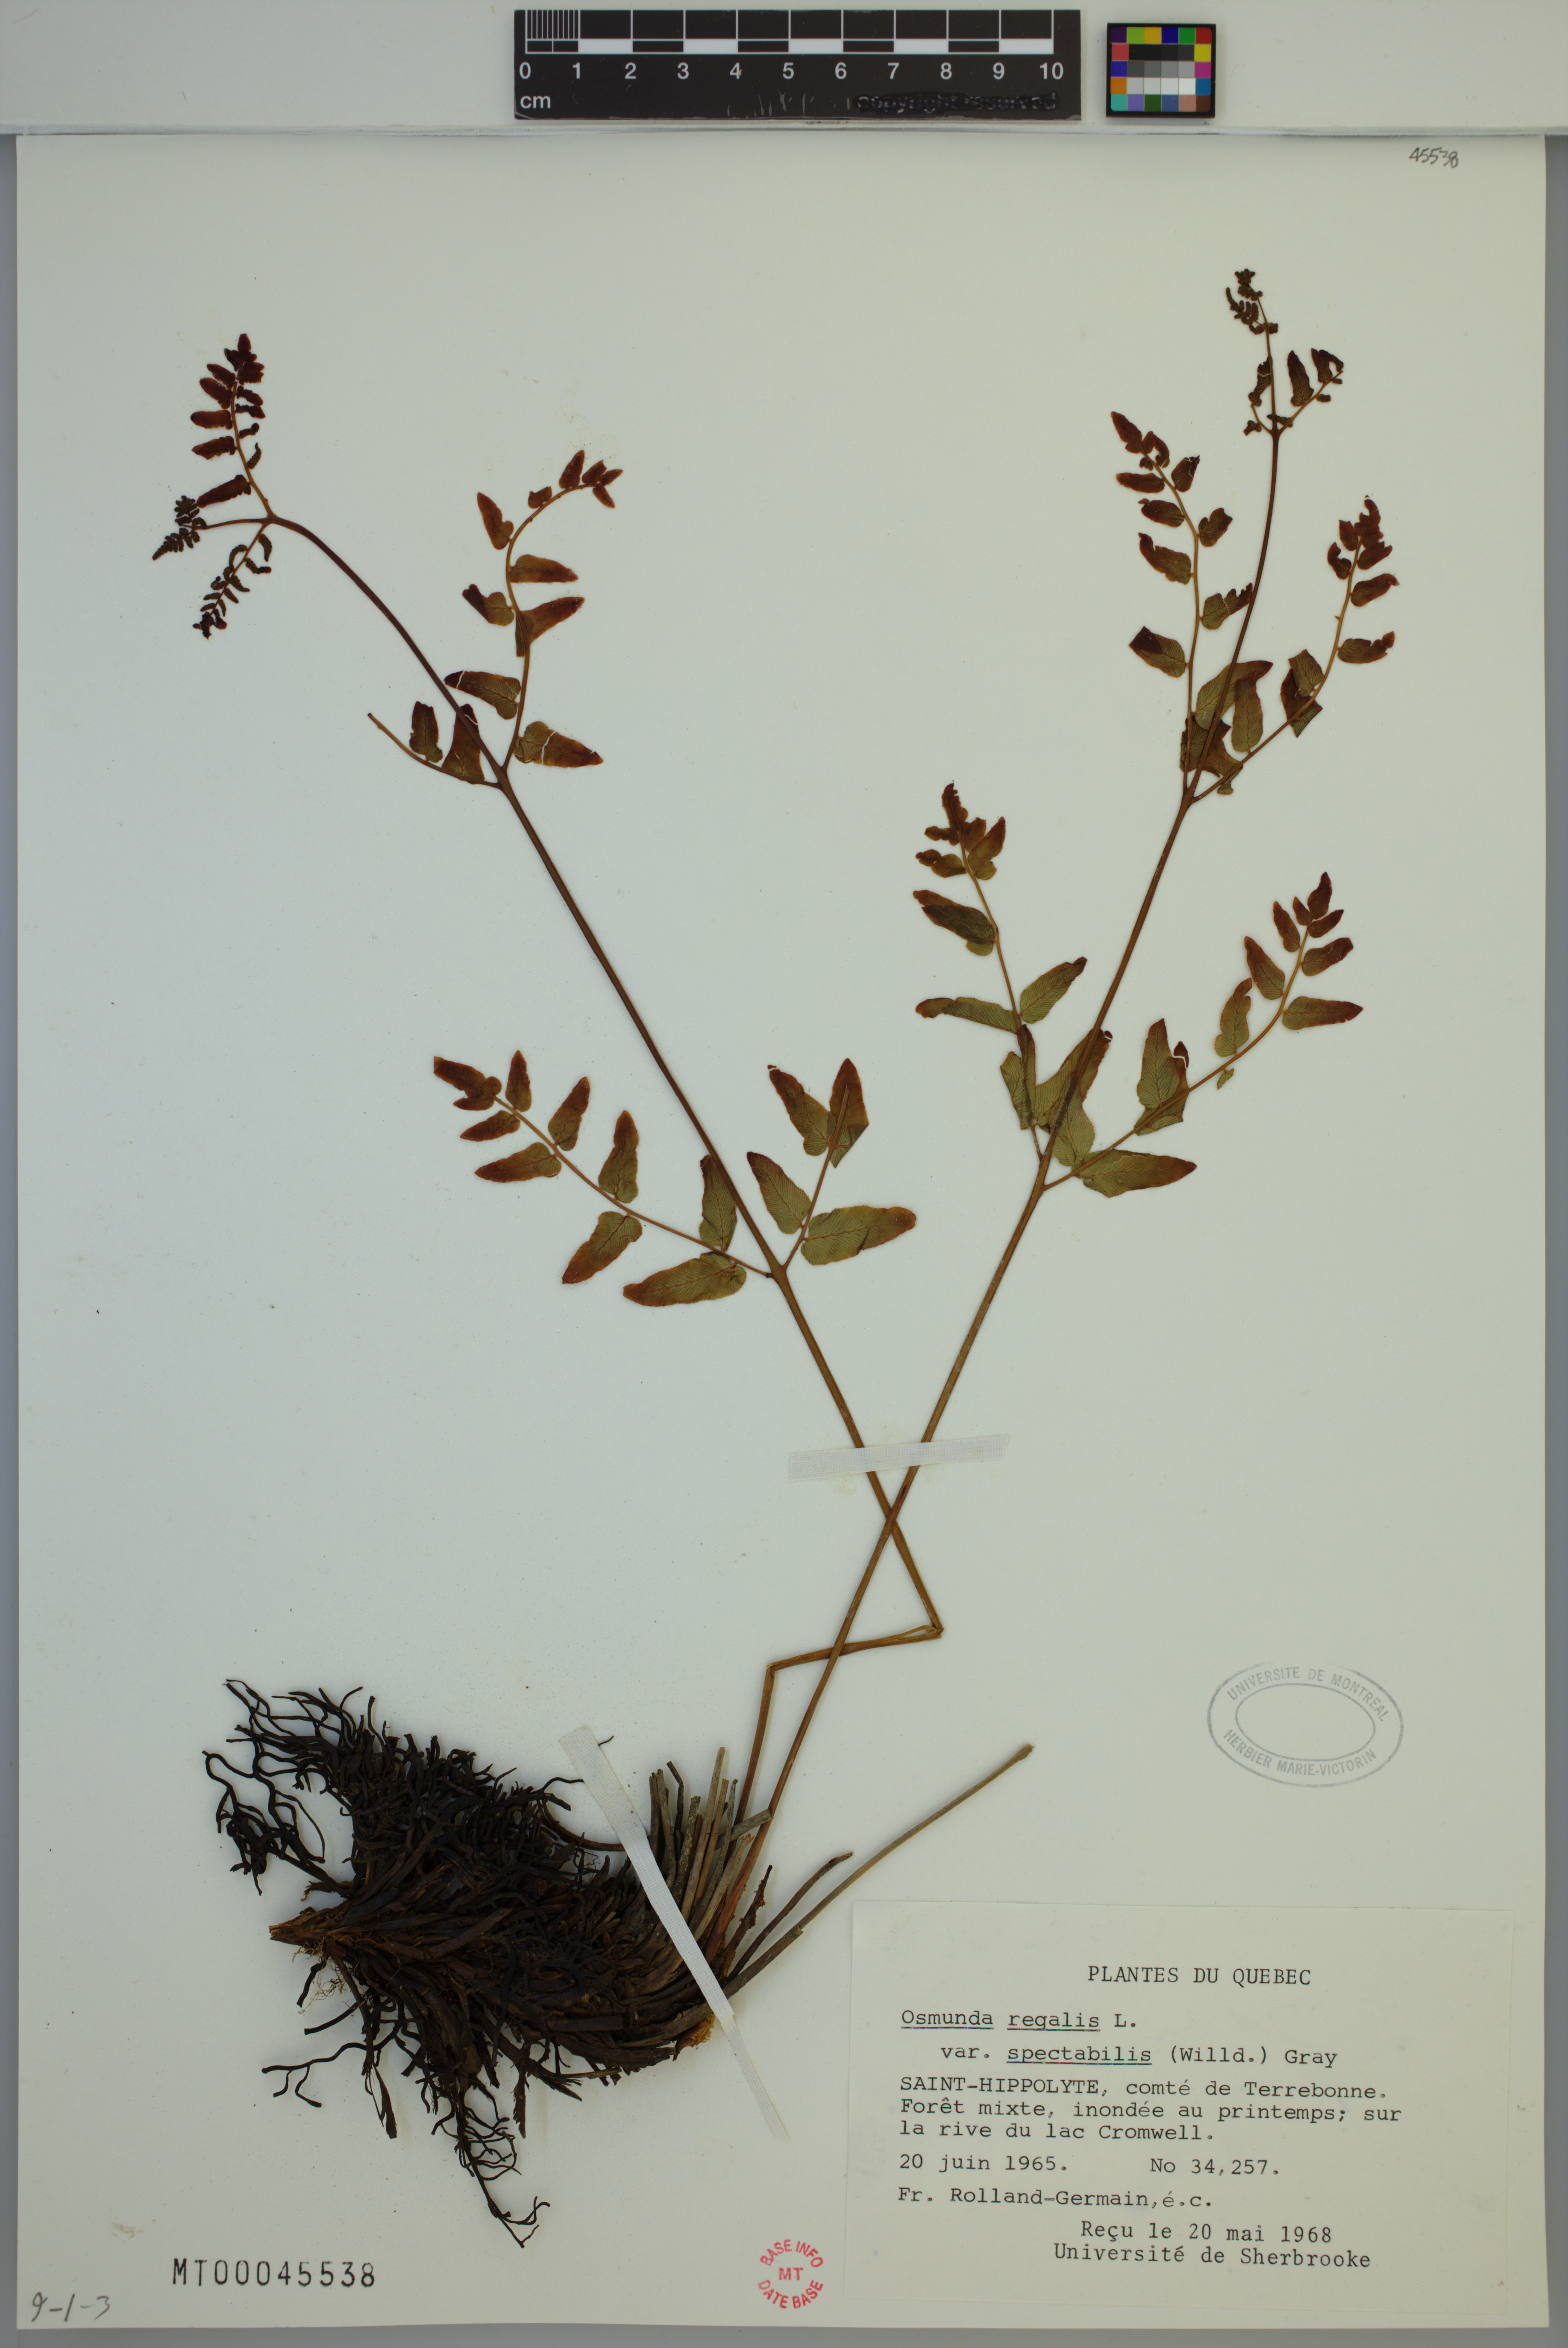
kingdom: Plantae
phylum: Tracheophyta
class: Polypodiopsida
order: Osmundales
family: Osmundaceae
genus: Osmunda
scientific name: Osmunda spectabilis
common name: American royal fern
